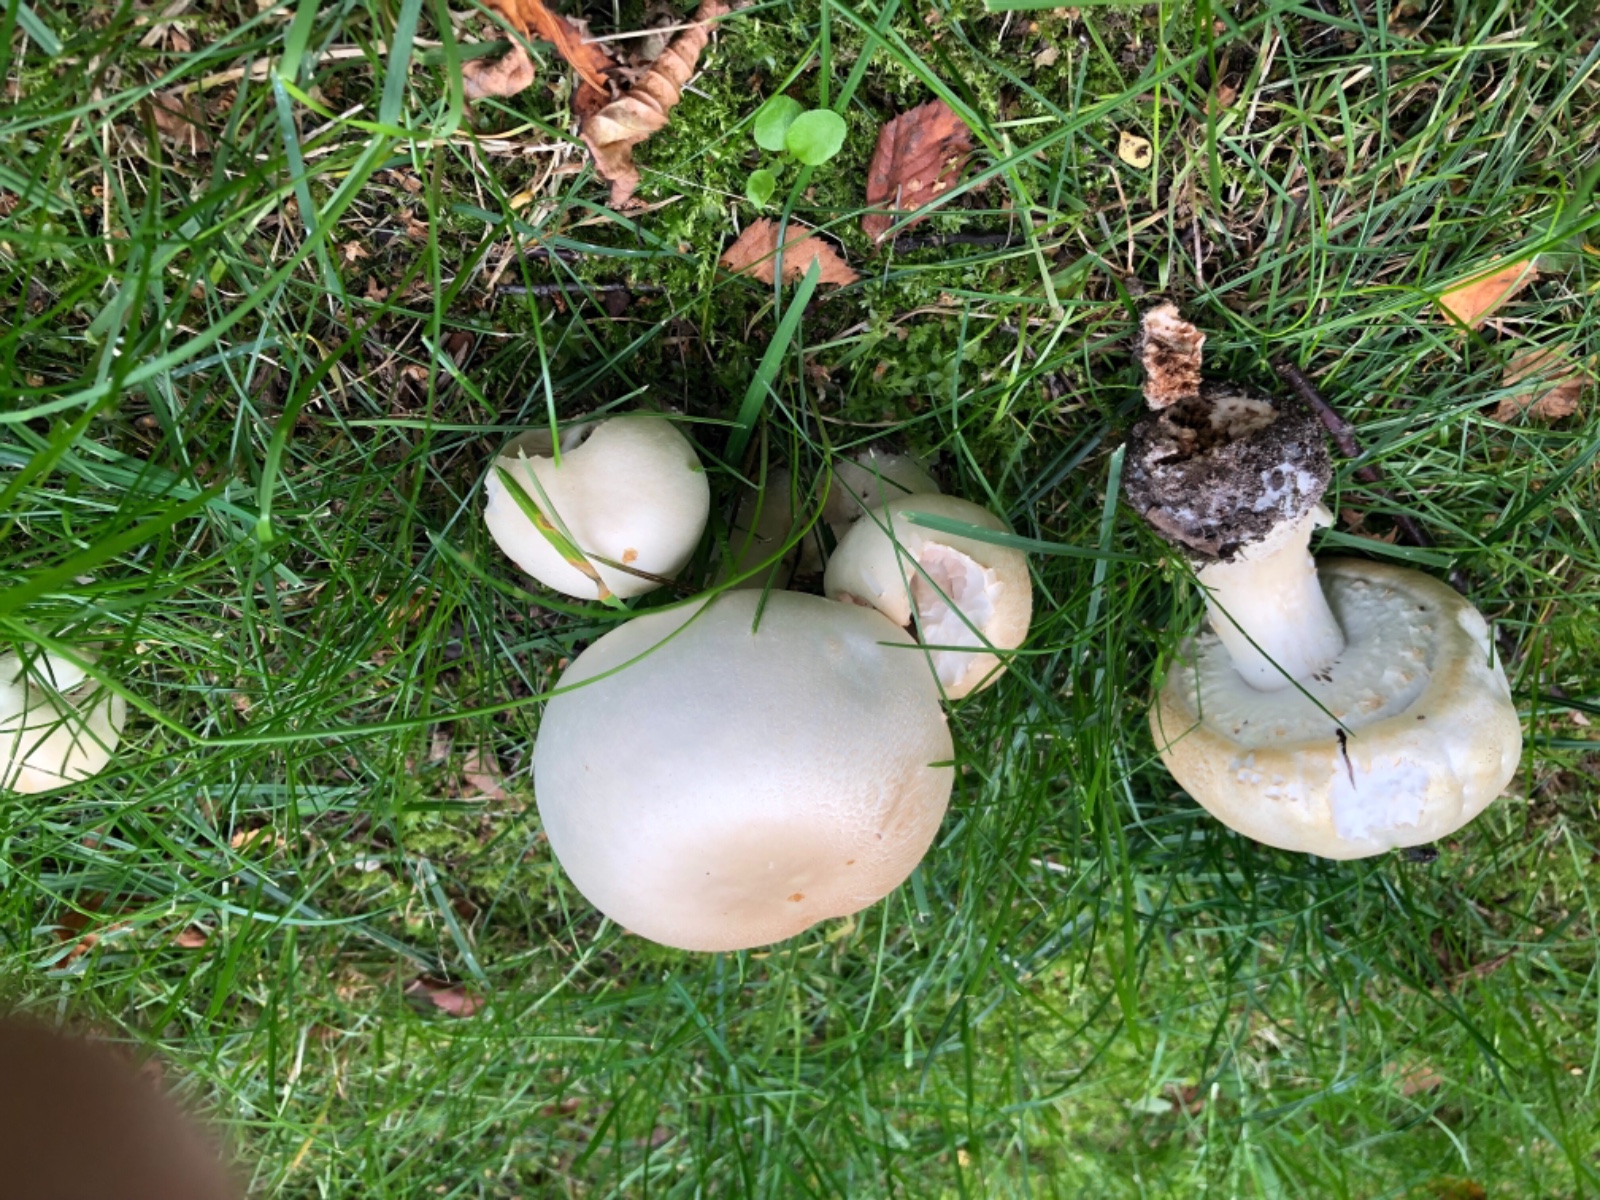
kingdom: Fungi
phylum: Basidiomycota
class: Agaricomycetes
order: Agaricales
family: Agaricaceae
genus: Agaricus
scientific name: Agaricus
